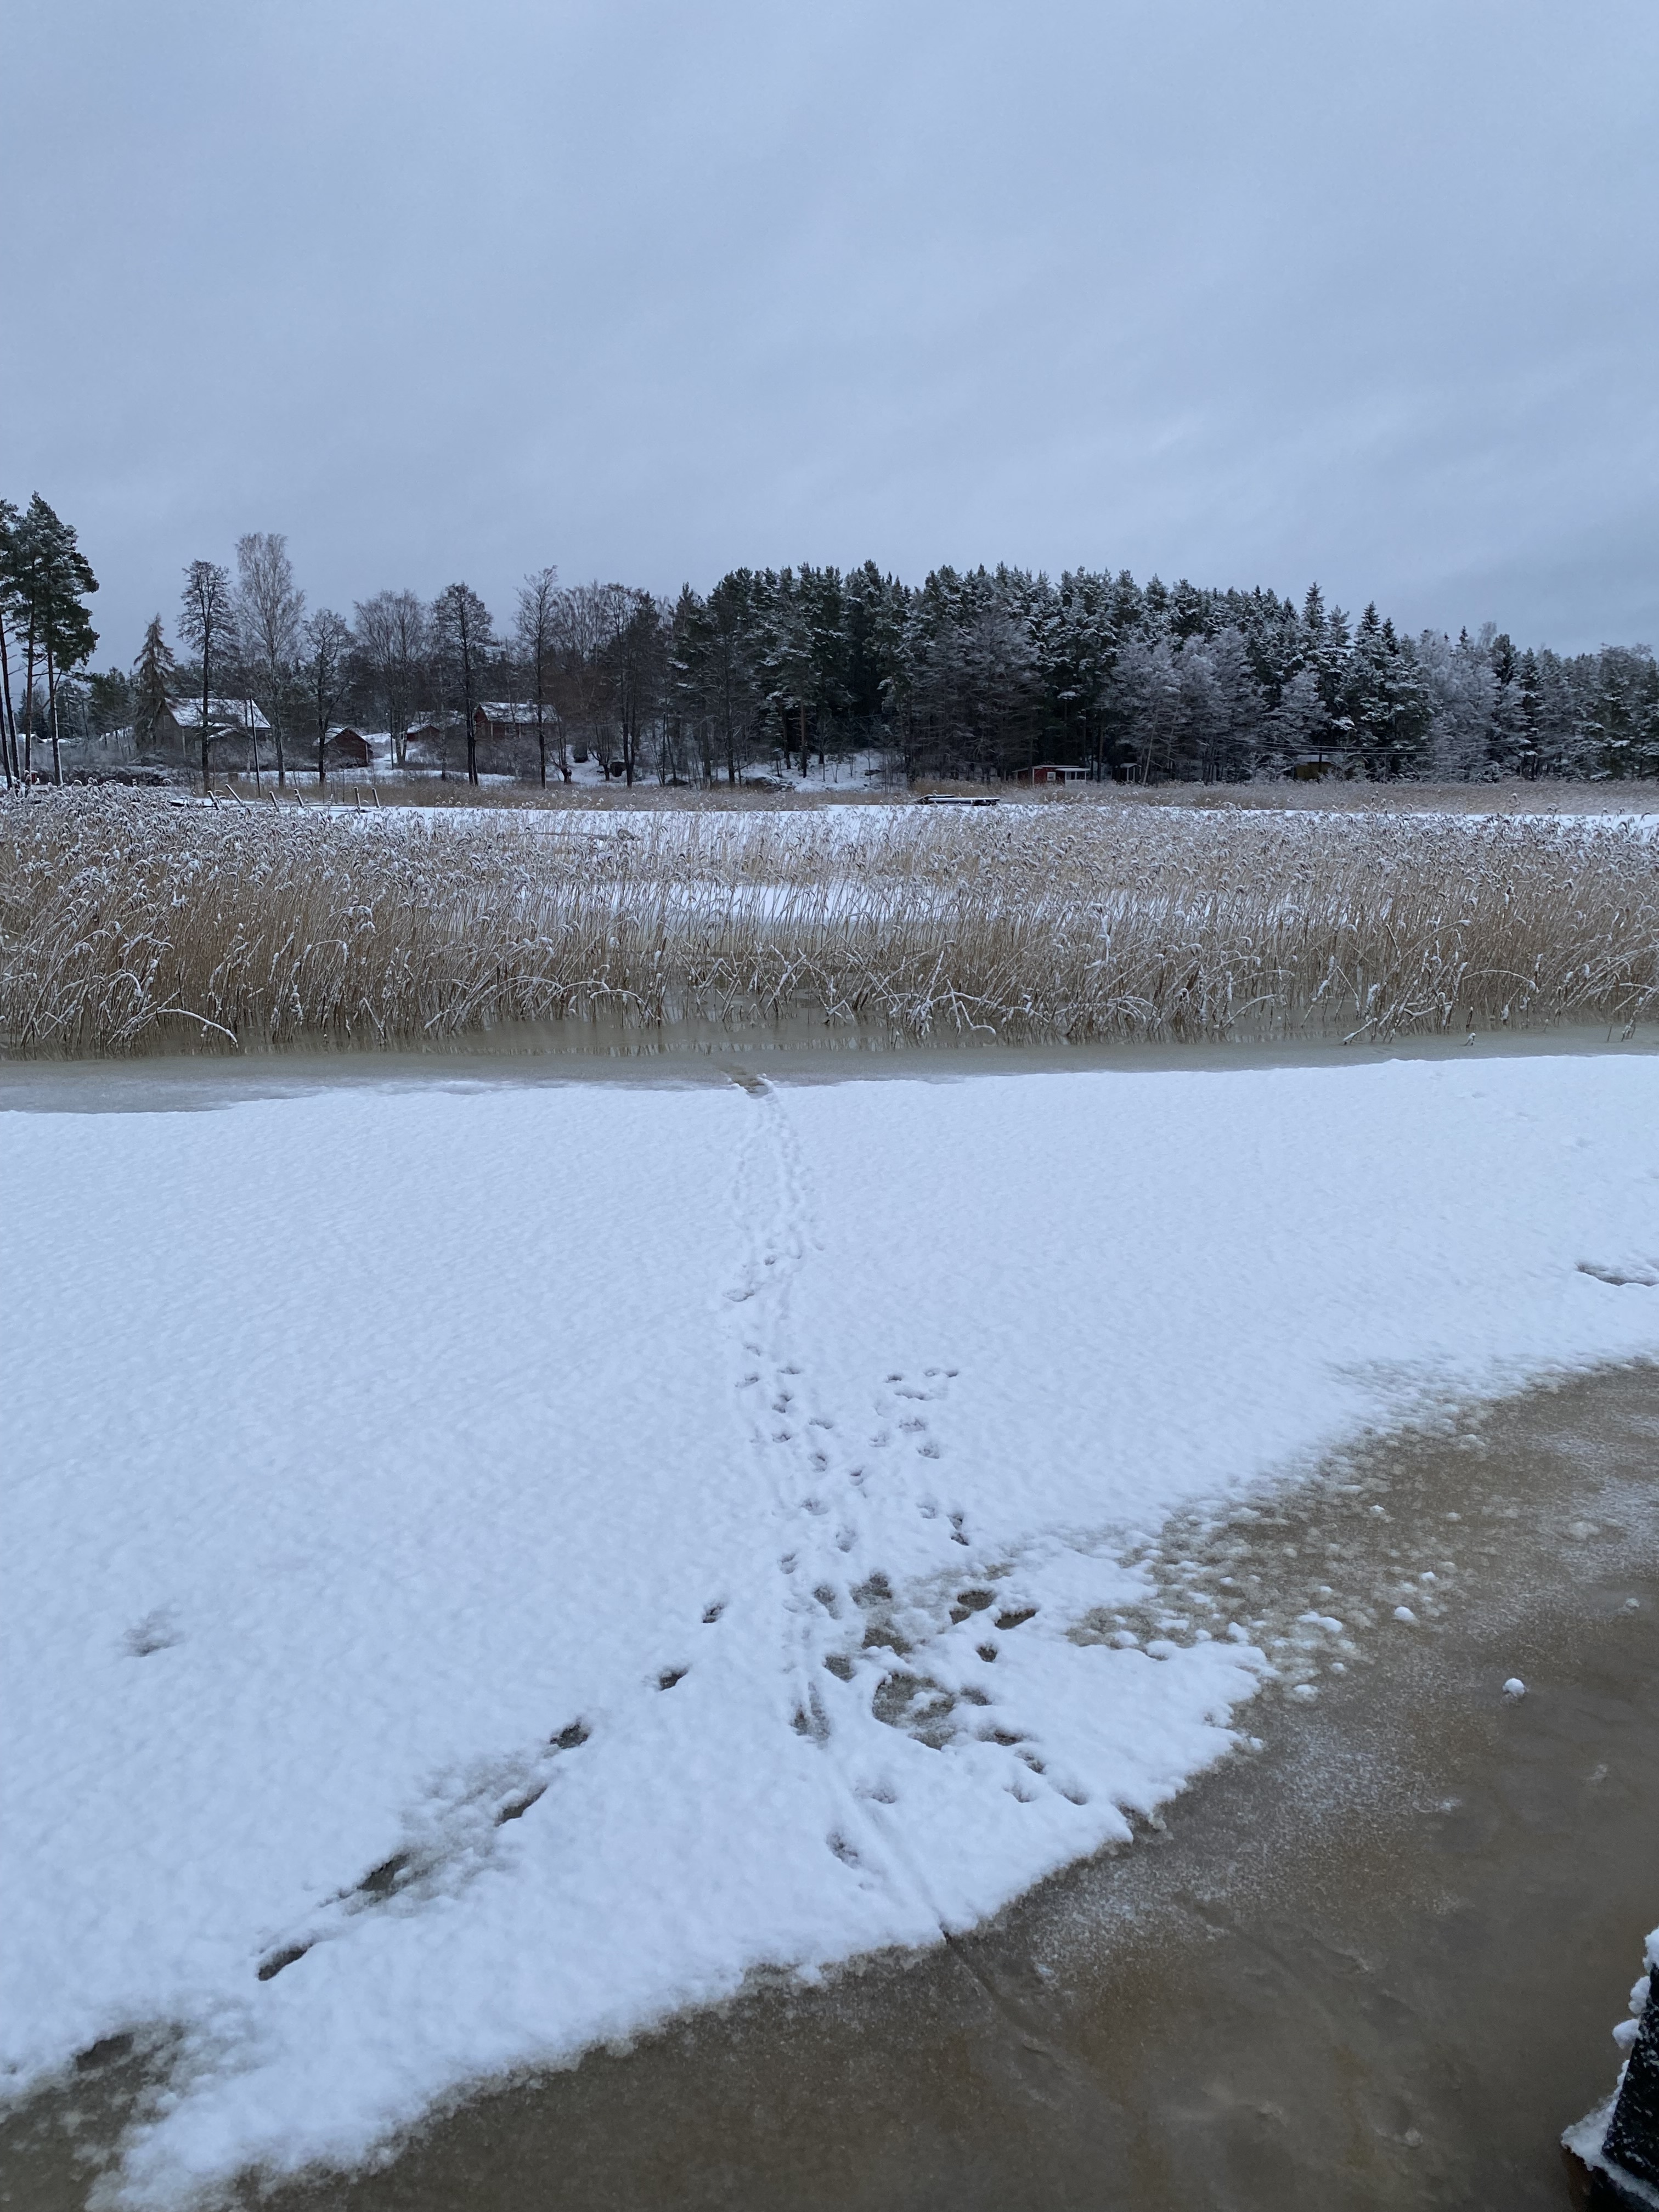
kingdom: Animalia
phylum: Chordata
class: Mammalia
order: Carnivora
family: Mustelidae
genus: Lutra
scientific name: Lutra lutra
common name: European otter
